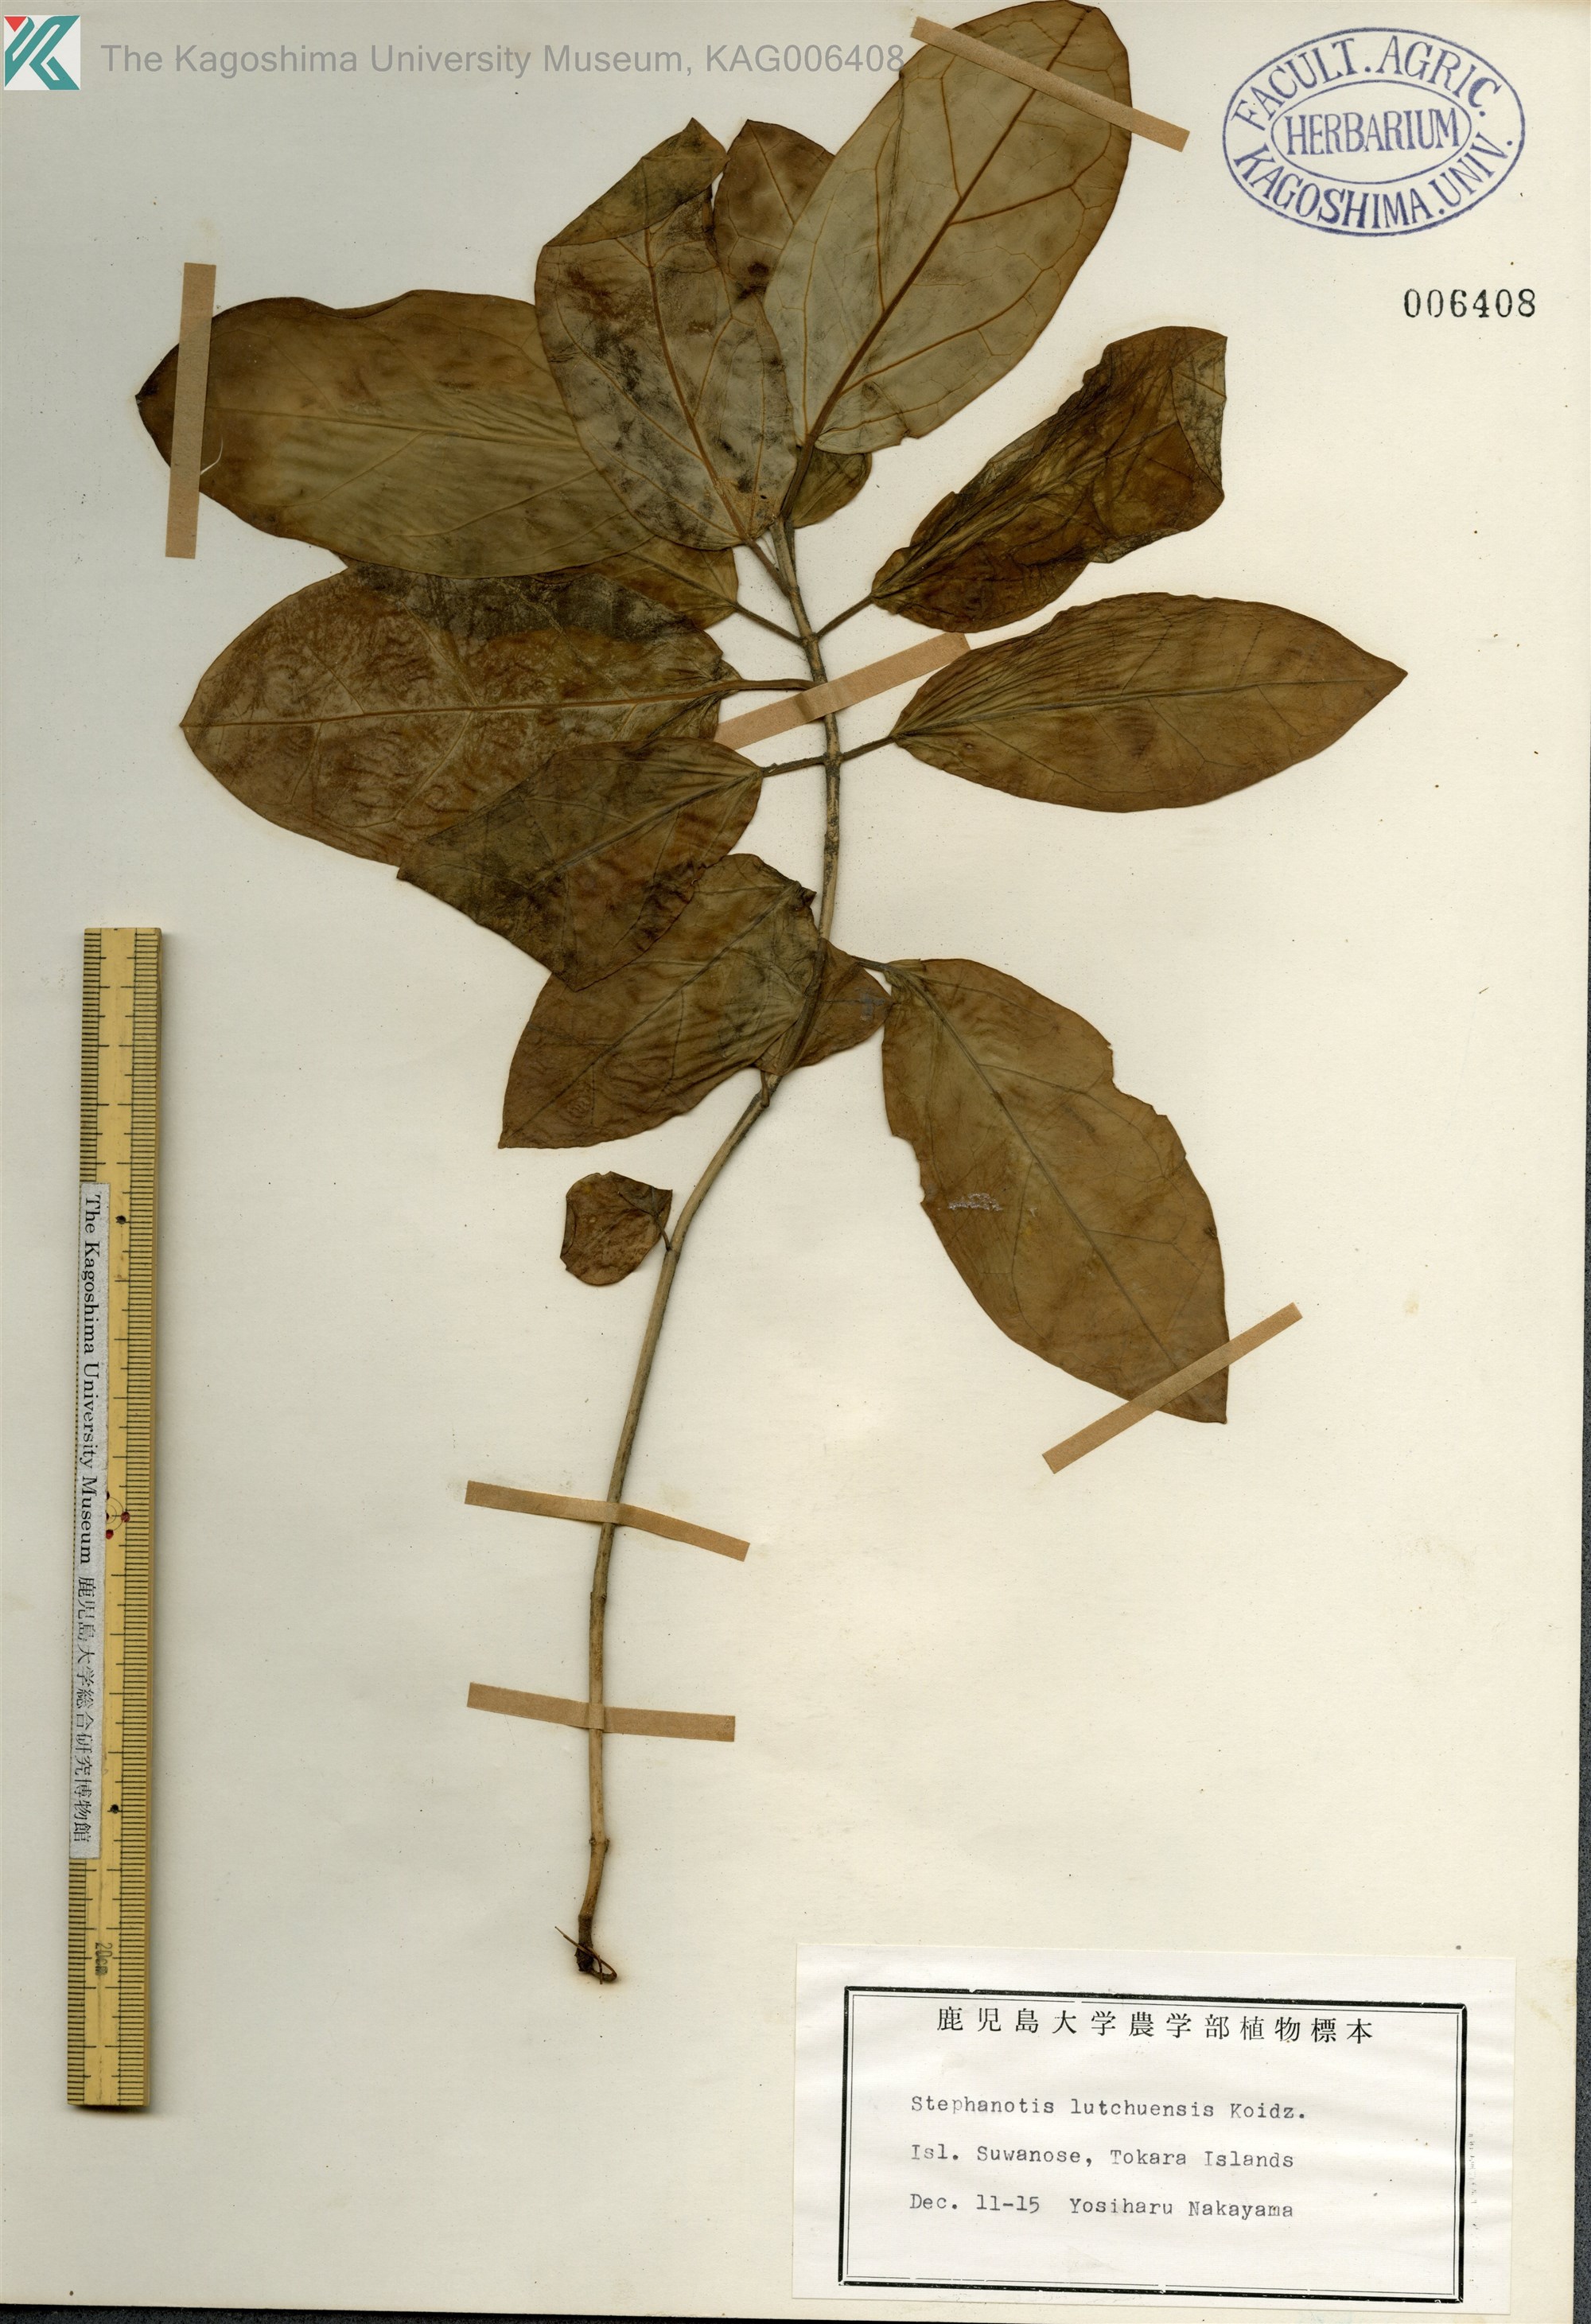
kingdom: Plantae
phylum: Tracheophyta
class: Magnoliopsida
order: Gentianales
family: Apocynaceae
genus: Vincetoxicum
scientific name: Vincetoxicum Tylophora tanakae
